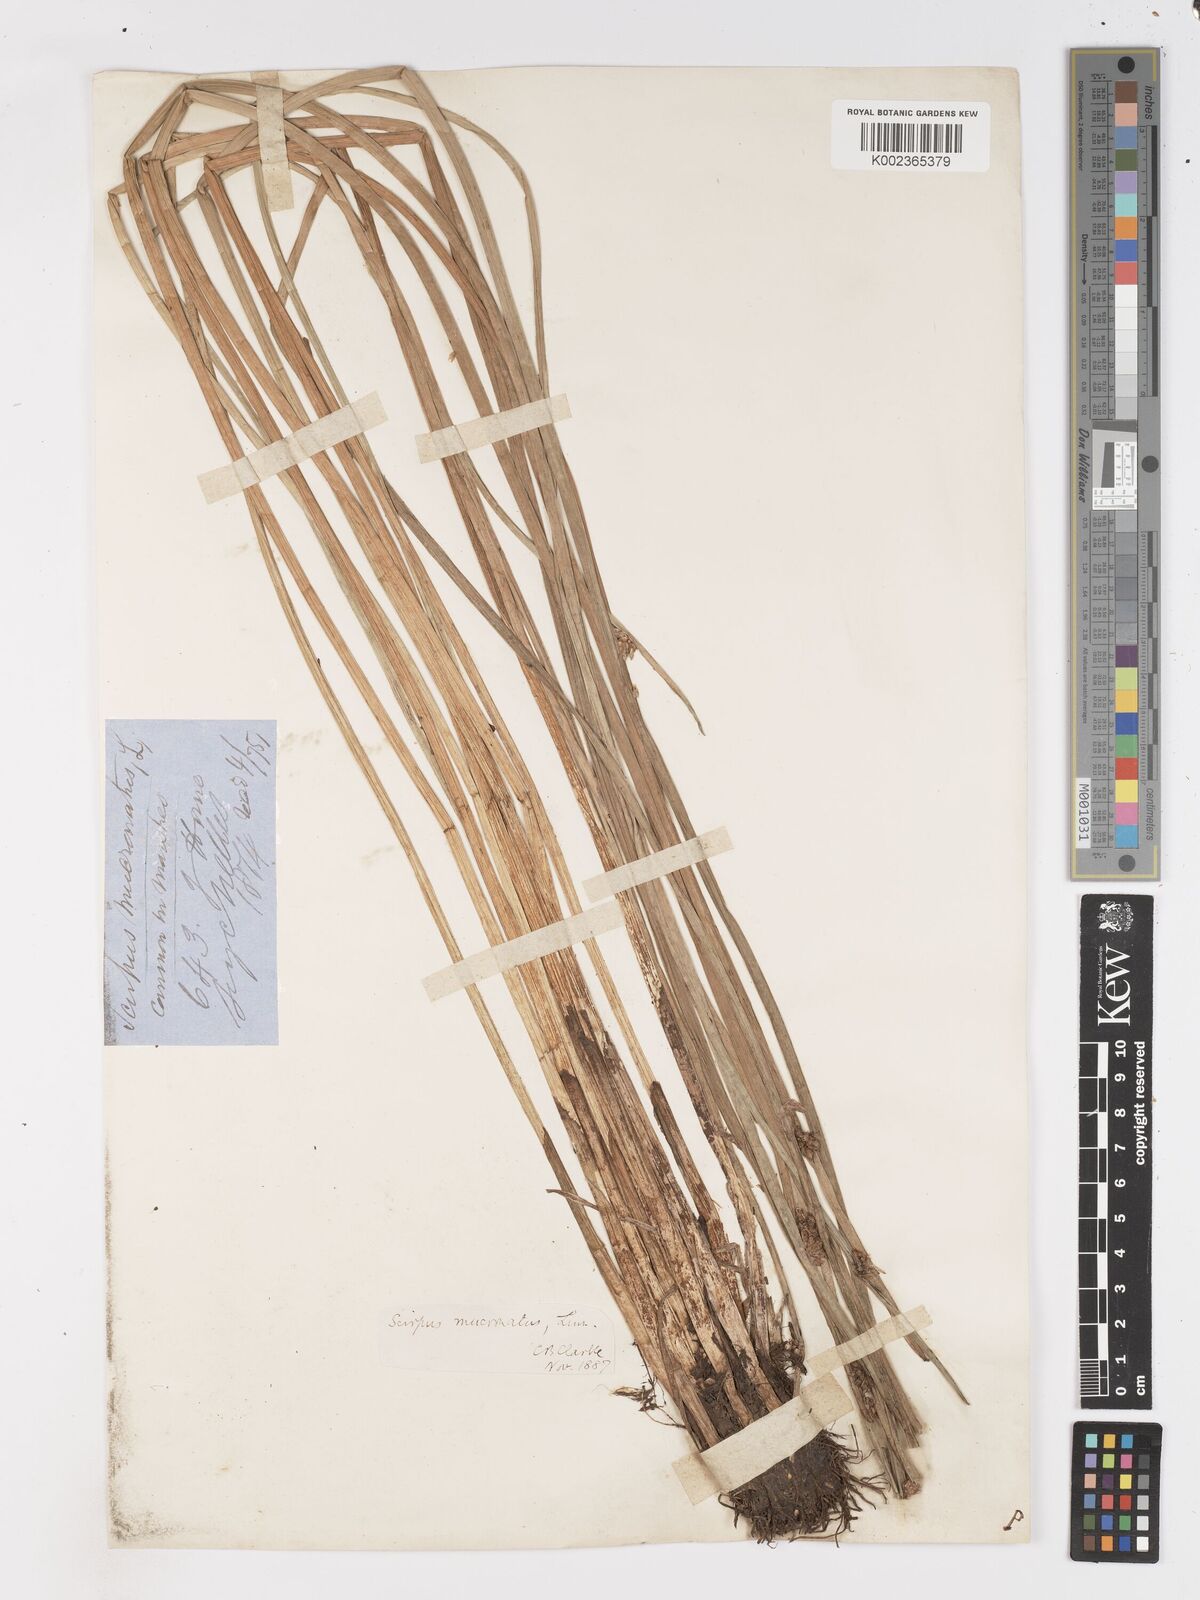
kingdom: Plantae
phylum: Tracheophyta
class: Liliopsida
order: Poales
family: Cyperaceae
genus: Schoenoplectiella
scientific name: Schoenoplectiella mucronata
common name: Bog bulrush
